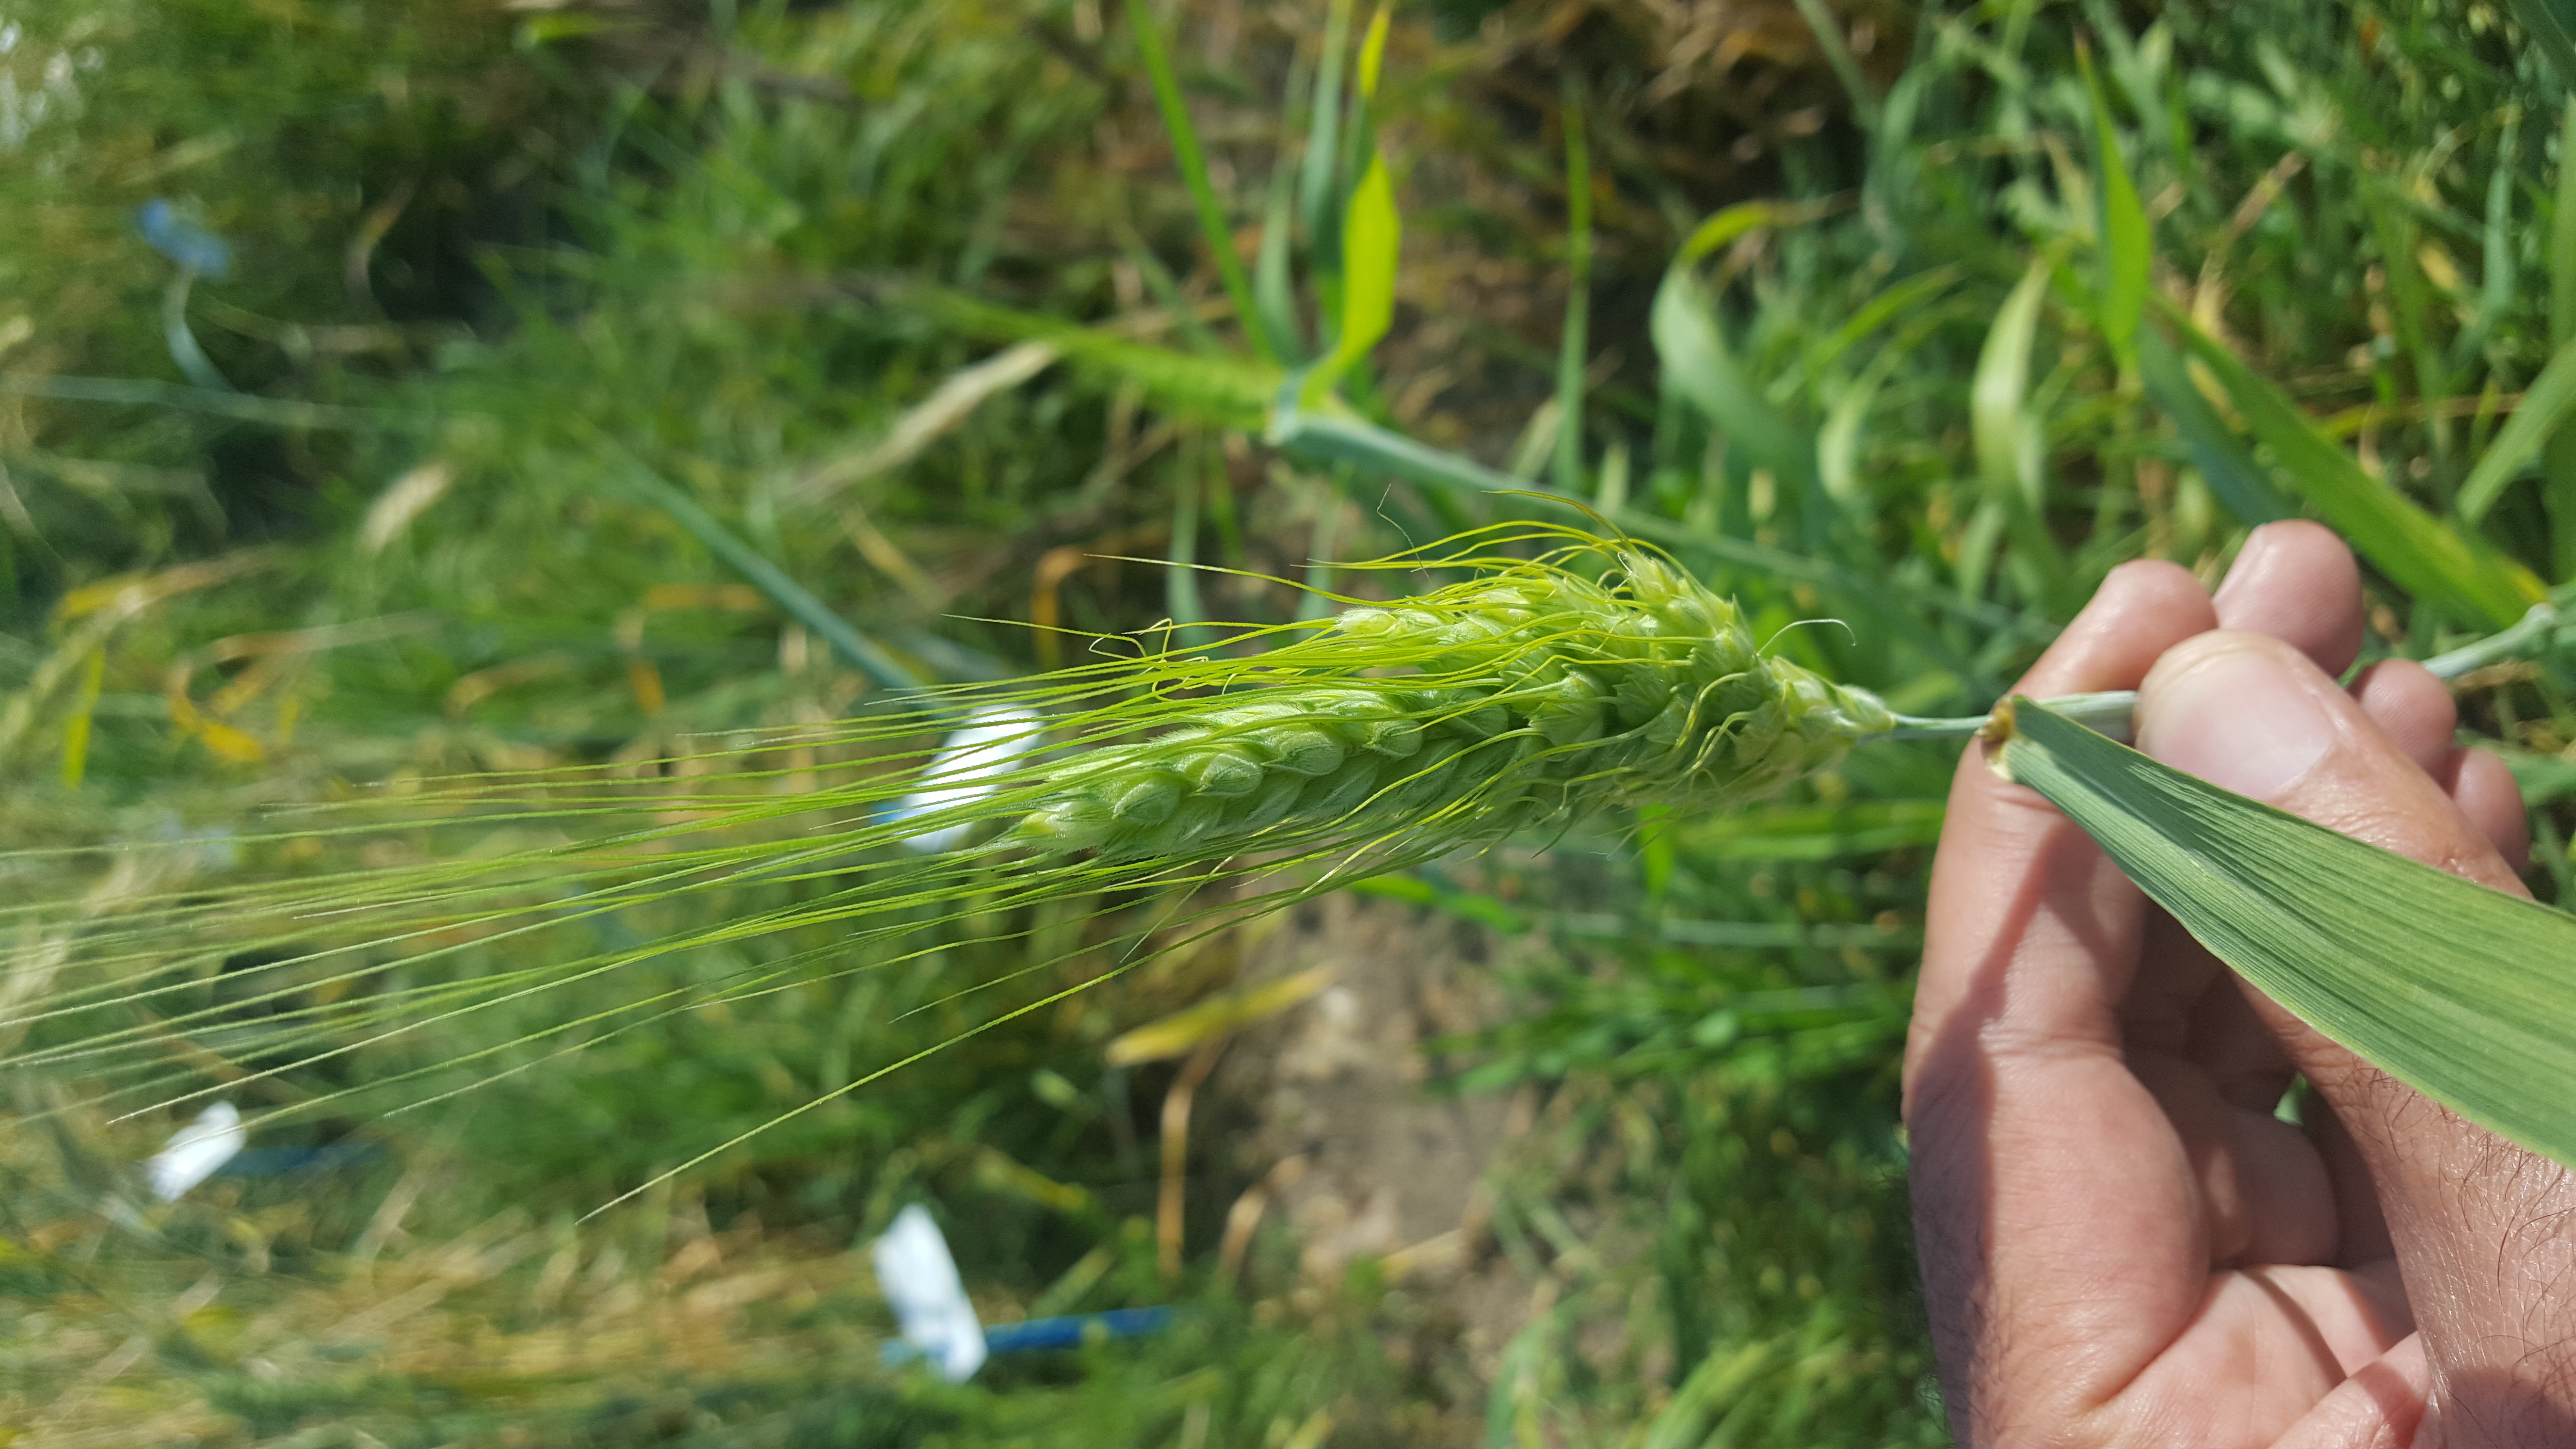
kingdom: Plantae
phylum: Tracheophyta
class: Liliopsida
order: Poales
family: Poaceae
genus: Triticum
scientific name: Triticum turgidum
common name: Rivet wheat
